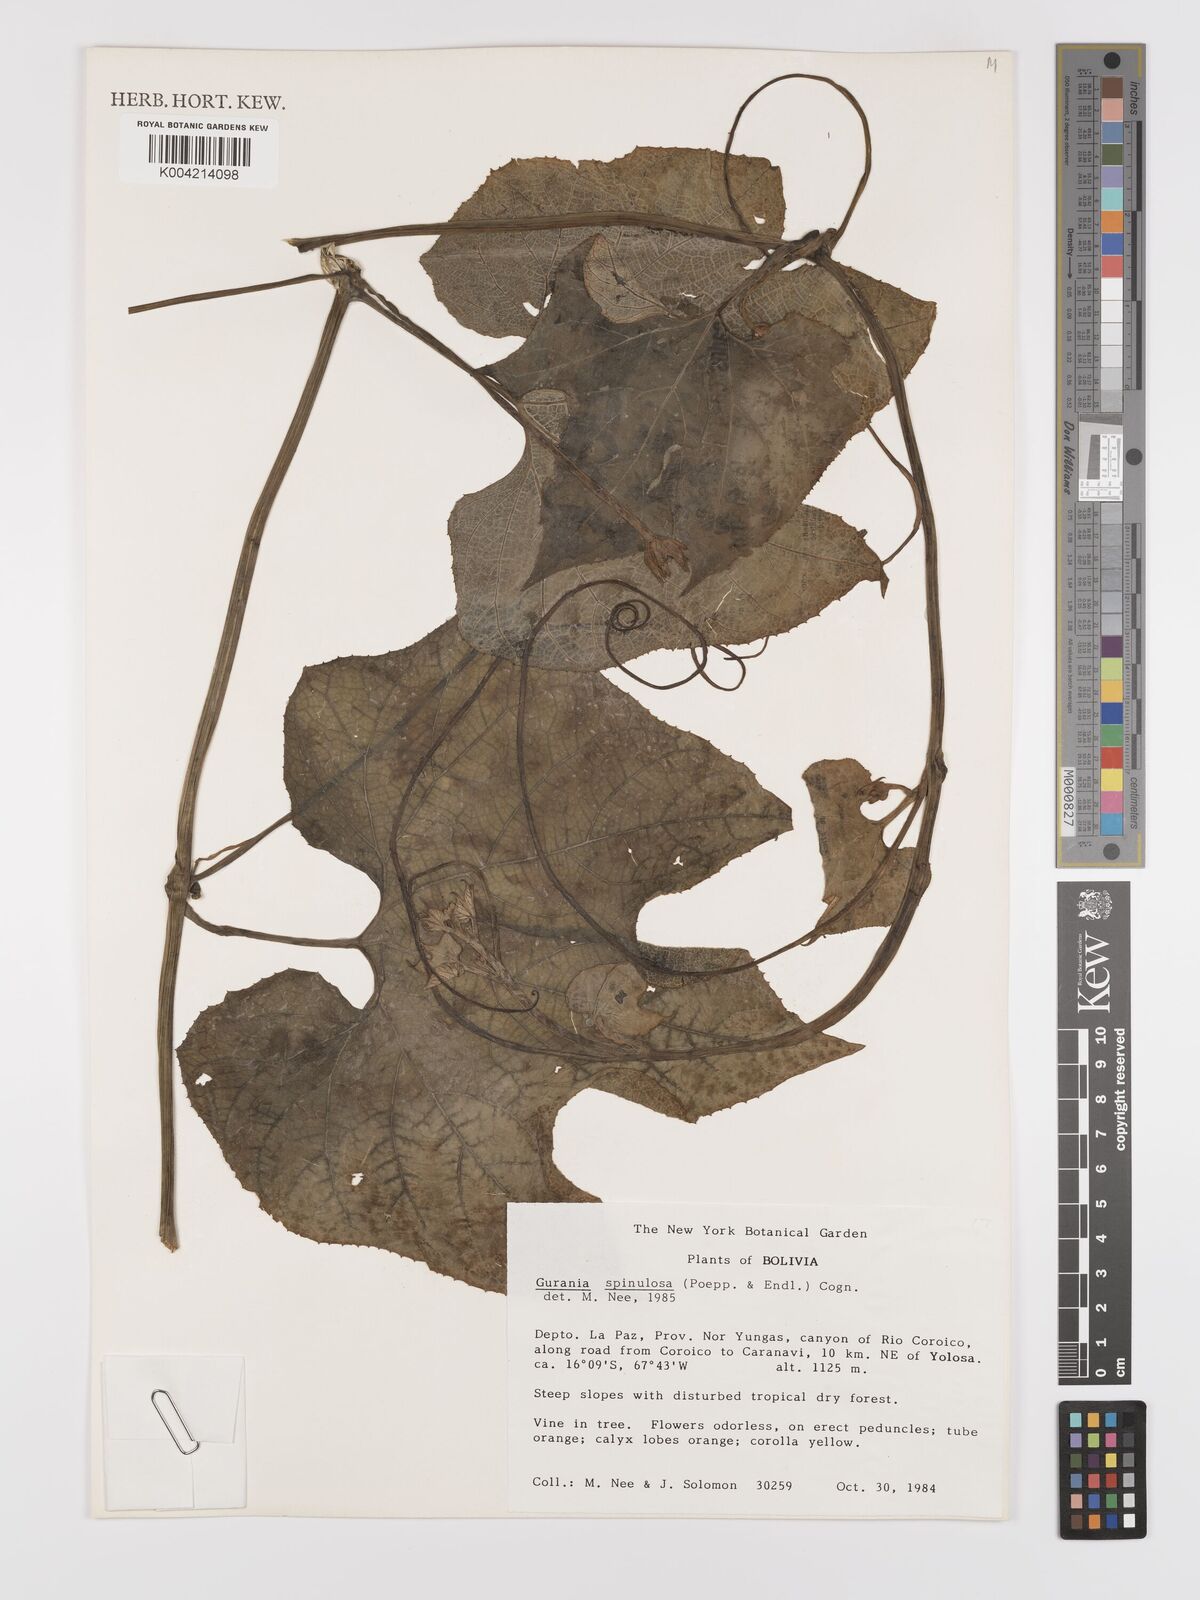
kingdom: Plantae
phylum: Tracheophyta
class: Magnoliopsida
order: Cucurbitales
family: Cucurbitaceae
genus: Gurania
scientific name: Gurania lobata
